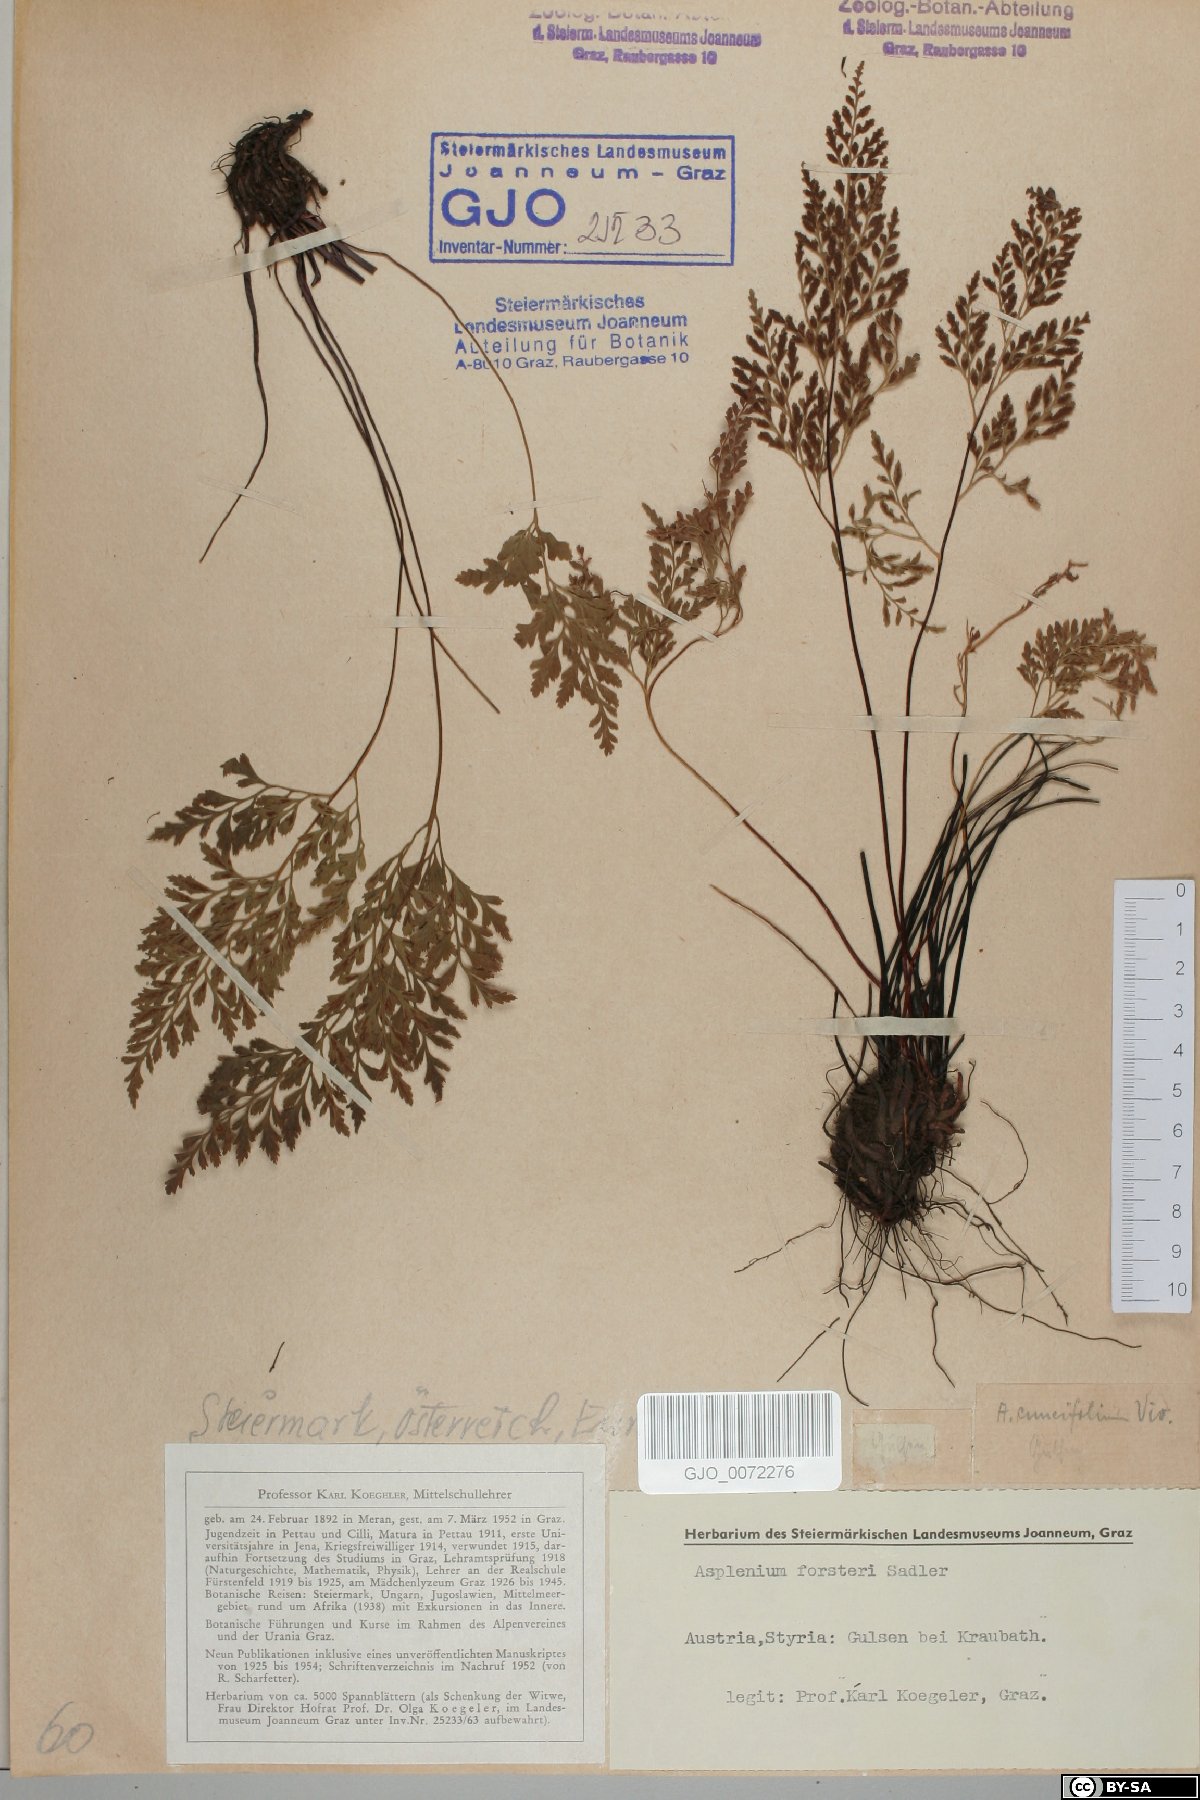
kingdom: Plantae
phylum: Tracheophyta
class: Polypodiopsida
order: Polypodiales
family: Aspleniaceae
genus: Asplenium
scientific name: Asplenium cuneifolium
